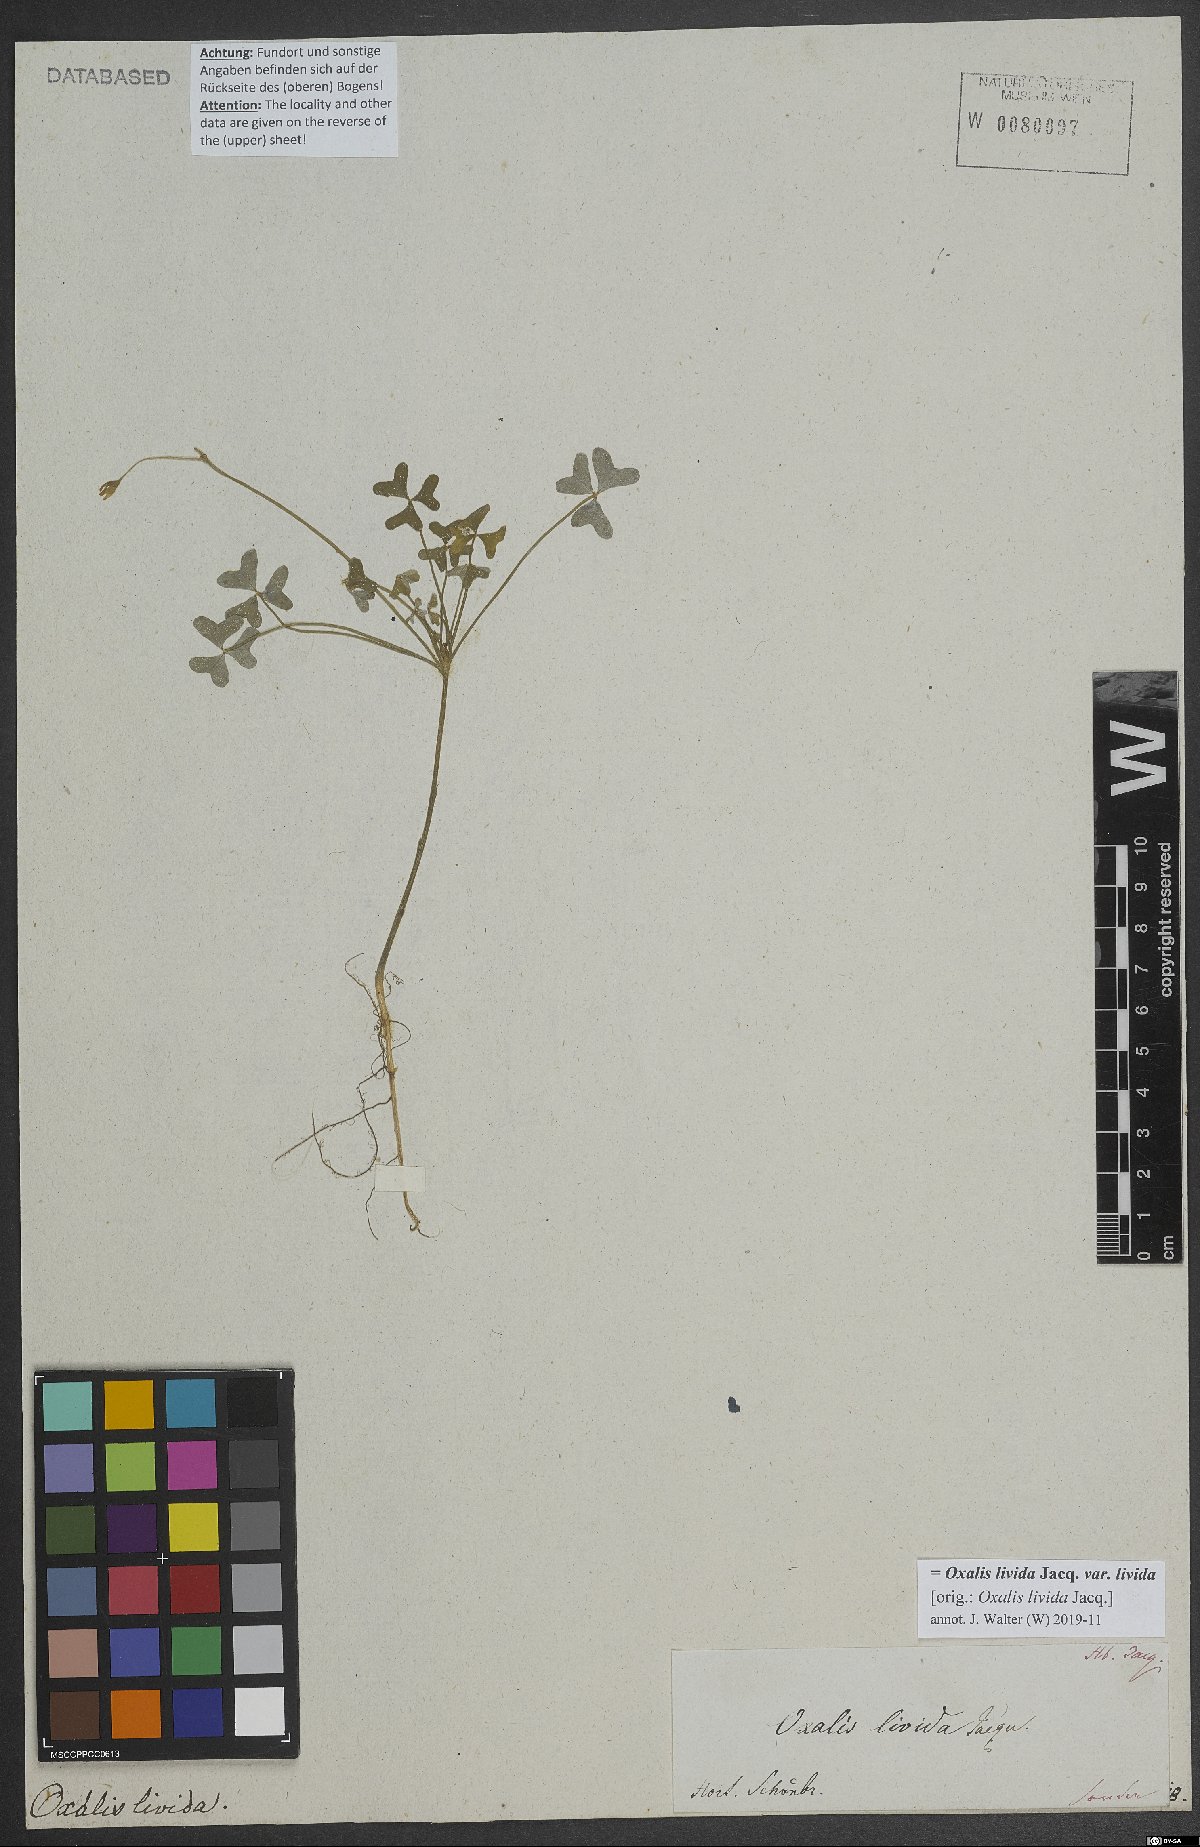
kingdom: Plantae
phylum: Tracheophyta
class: Magnoliopsida
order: Oxalidales
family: Oxalidaceae
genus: Oxalis
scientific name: Oxalis livida
